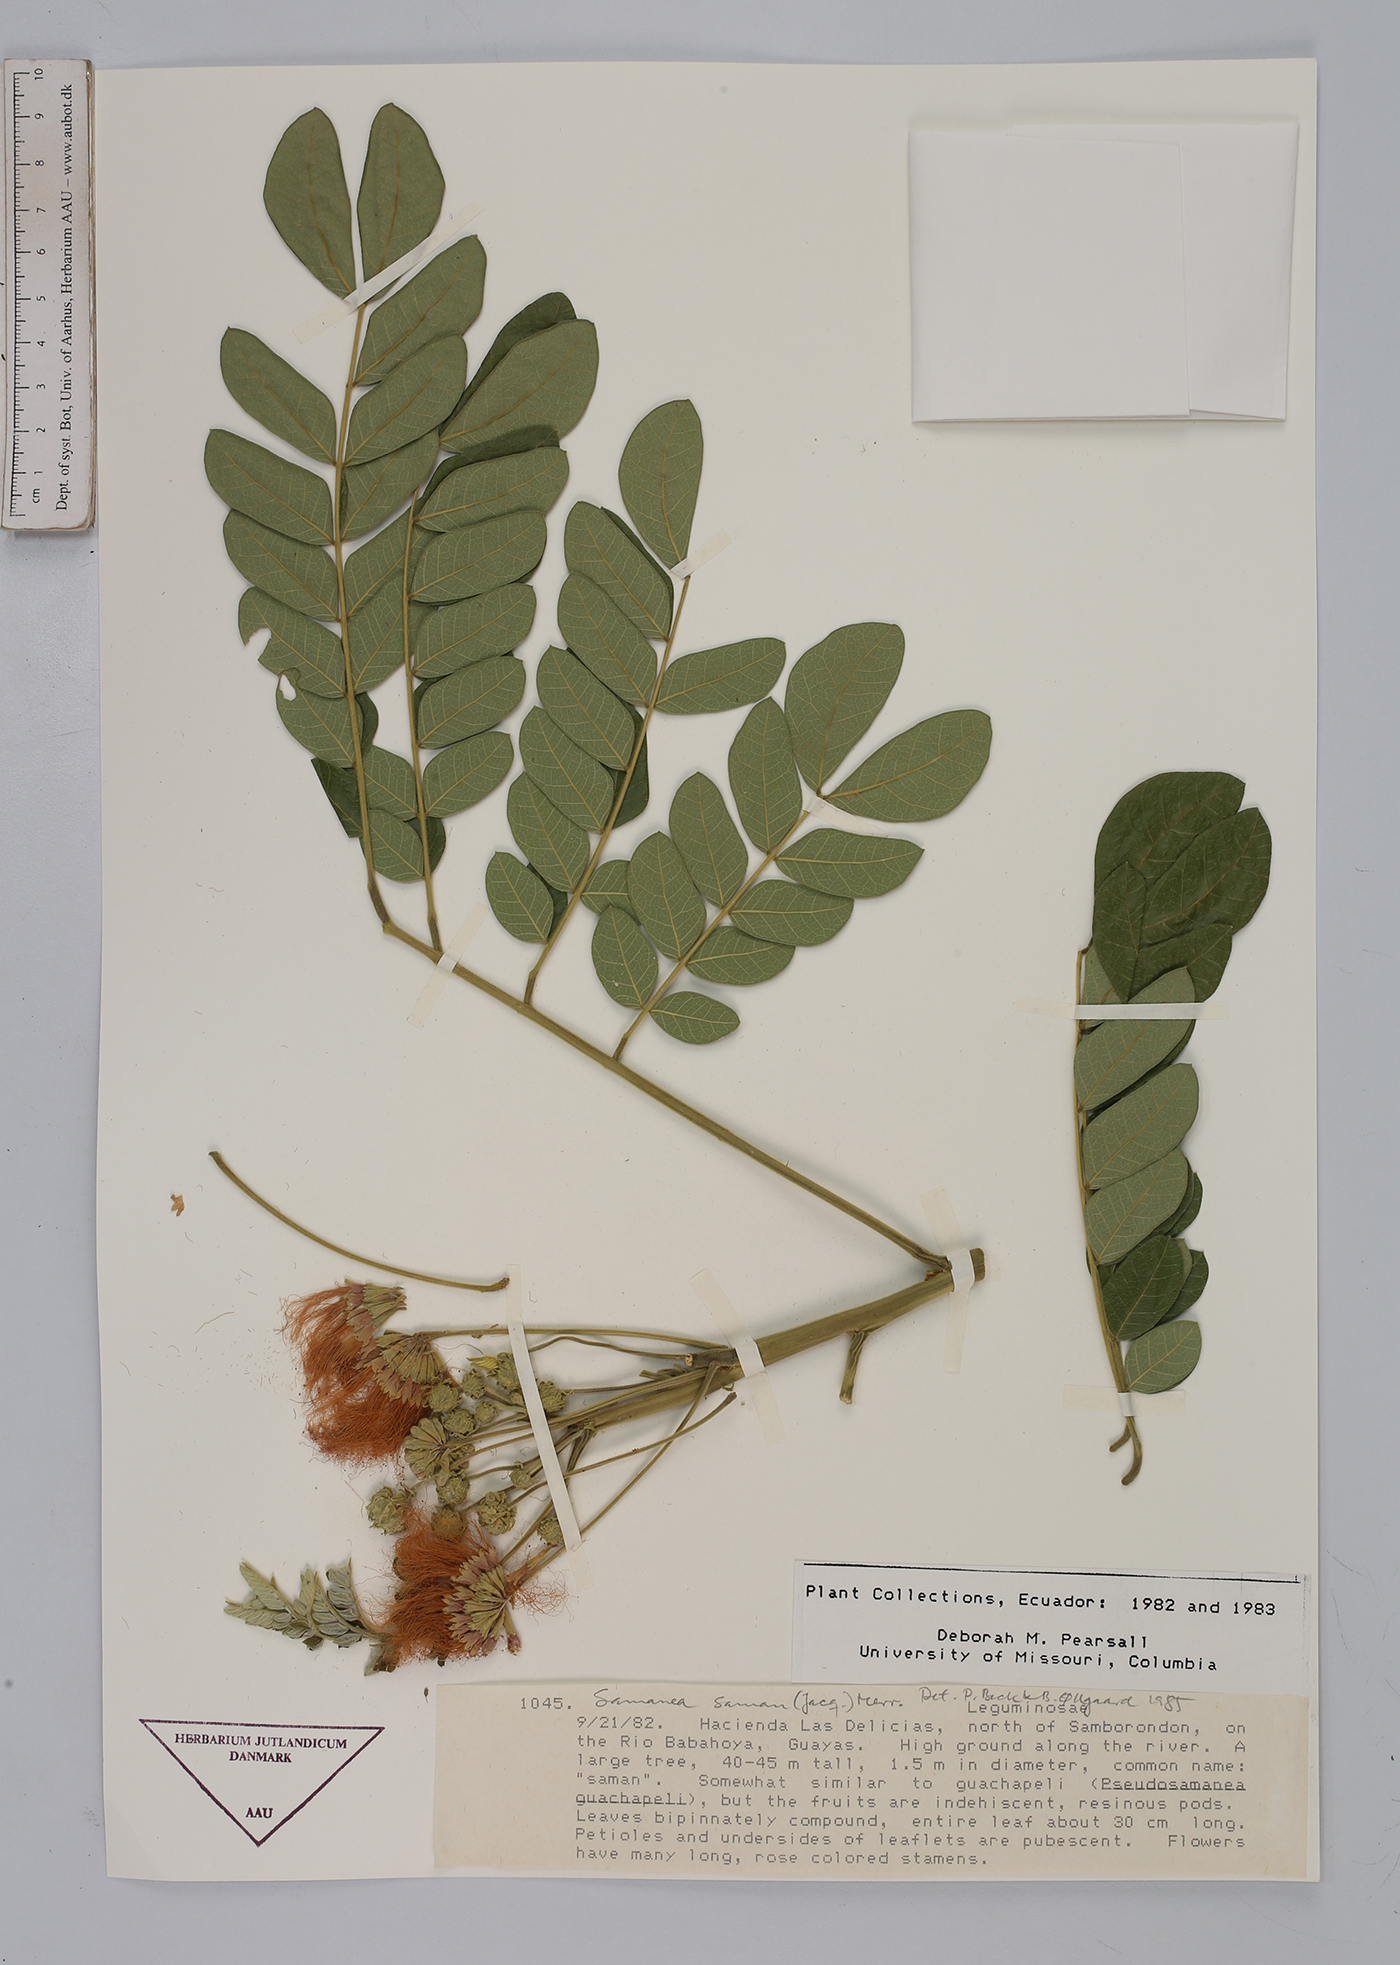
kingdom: Plantae
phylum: Tracheophyta
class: Magnoliopsida
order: Fabales
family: Fabaceae
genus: Samanea
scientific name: Samanea saman
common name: Raintree
